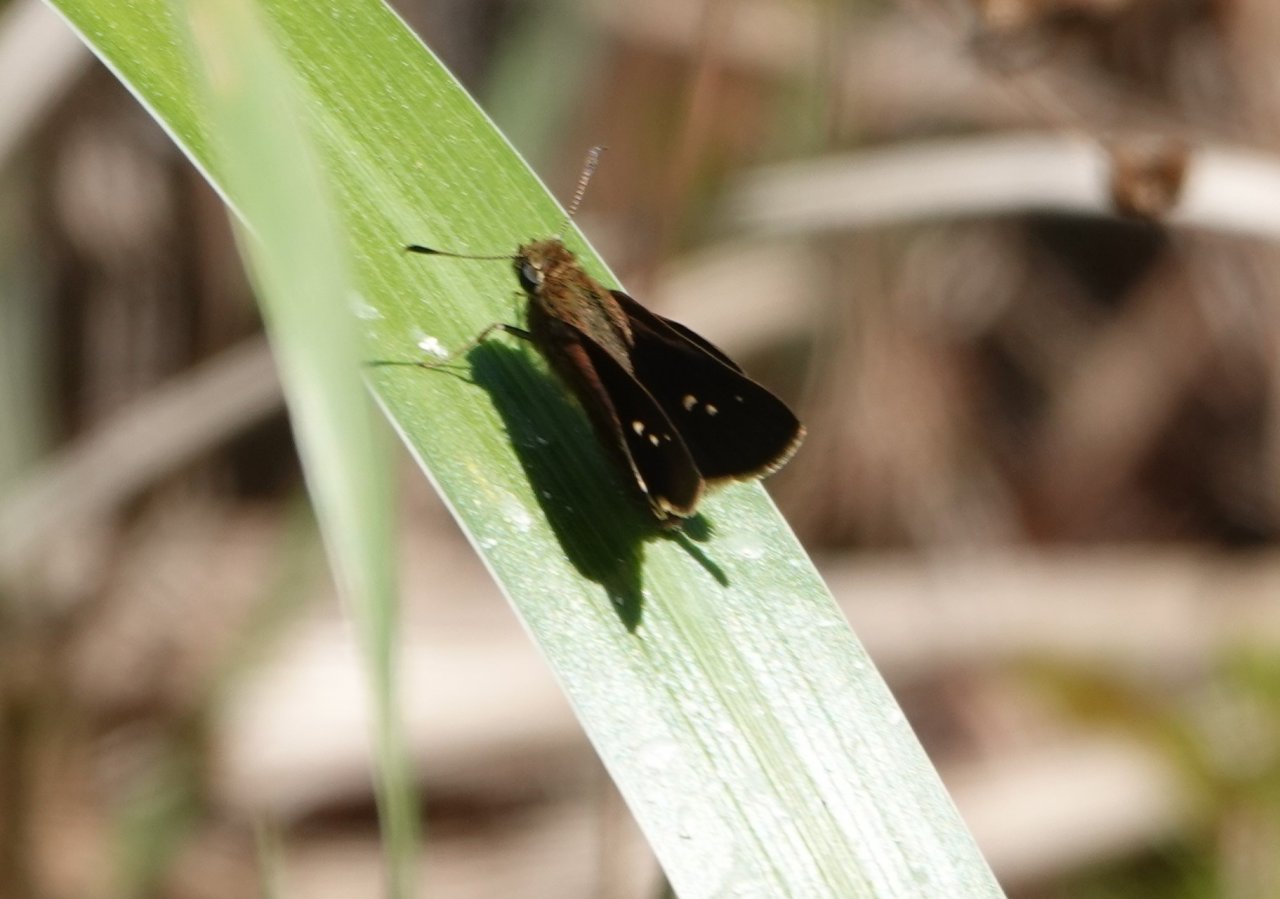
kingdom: Animalia
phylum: Arthropoda
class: Insecta
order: Lepidoptera
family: Hesperiidae
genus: Euphyes
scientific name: Euphyes vestris
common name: Dun Skipper
